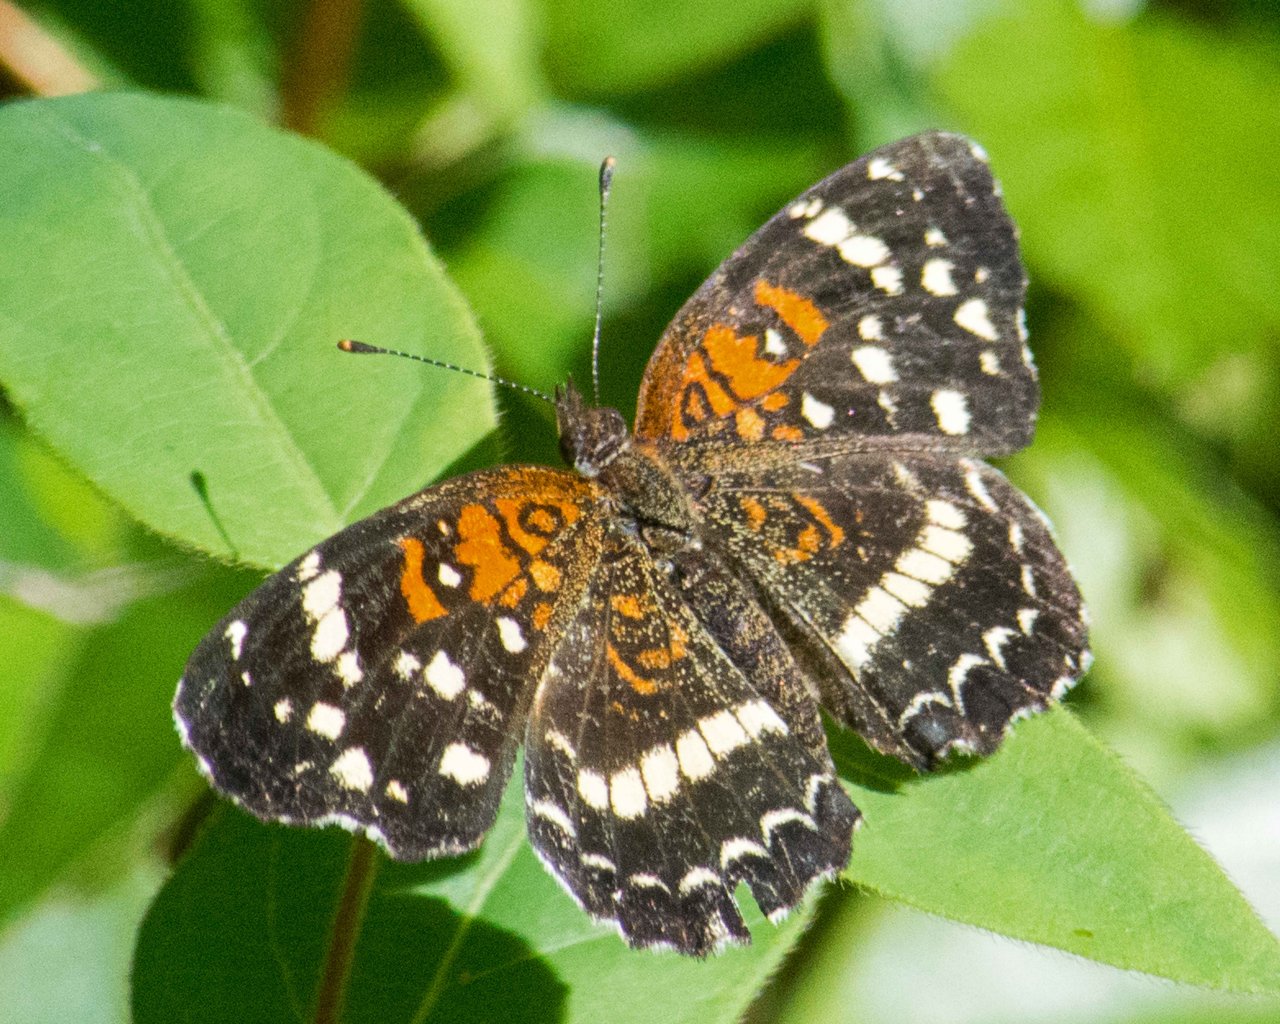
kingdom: Animalia
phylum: Arthropoda
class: Insecta
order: Lepidoptera
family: Nymphalidae
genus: Anthanassa
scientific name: Anthanassa texana
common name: Texan Crescent
